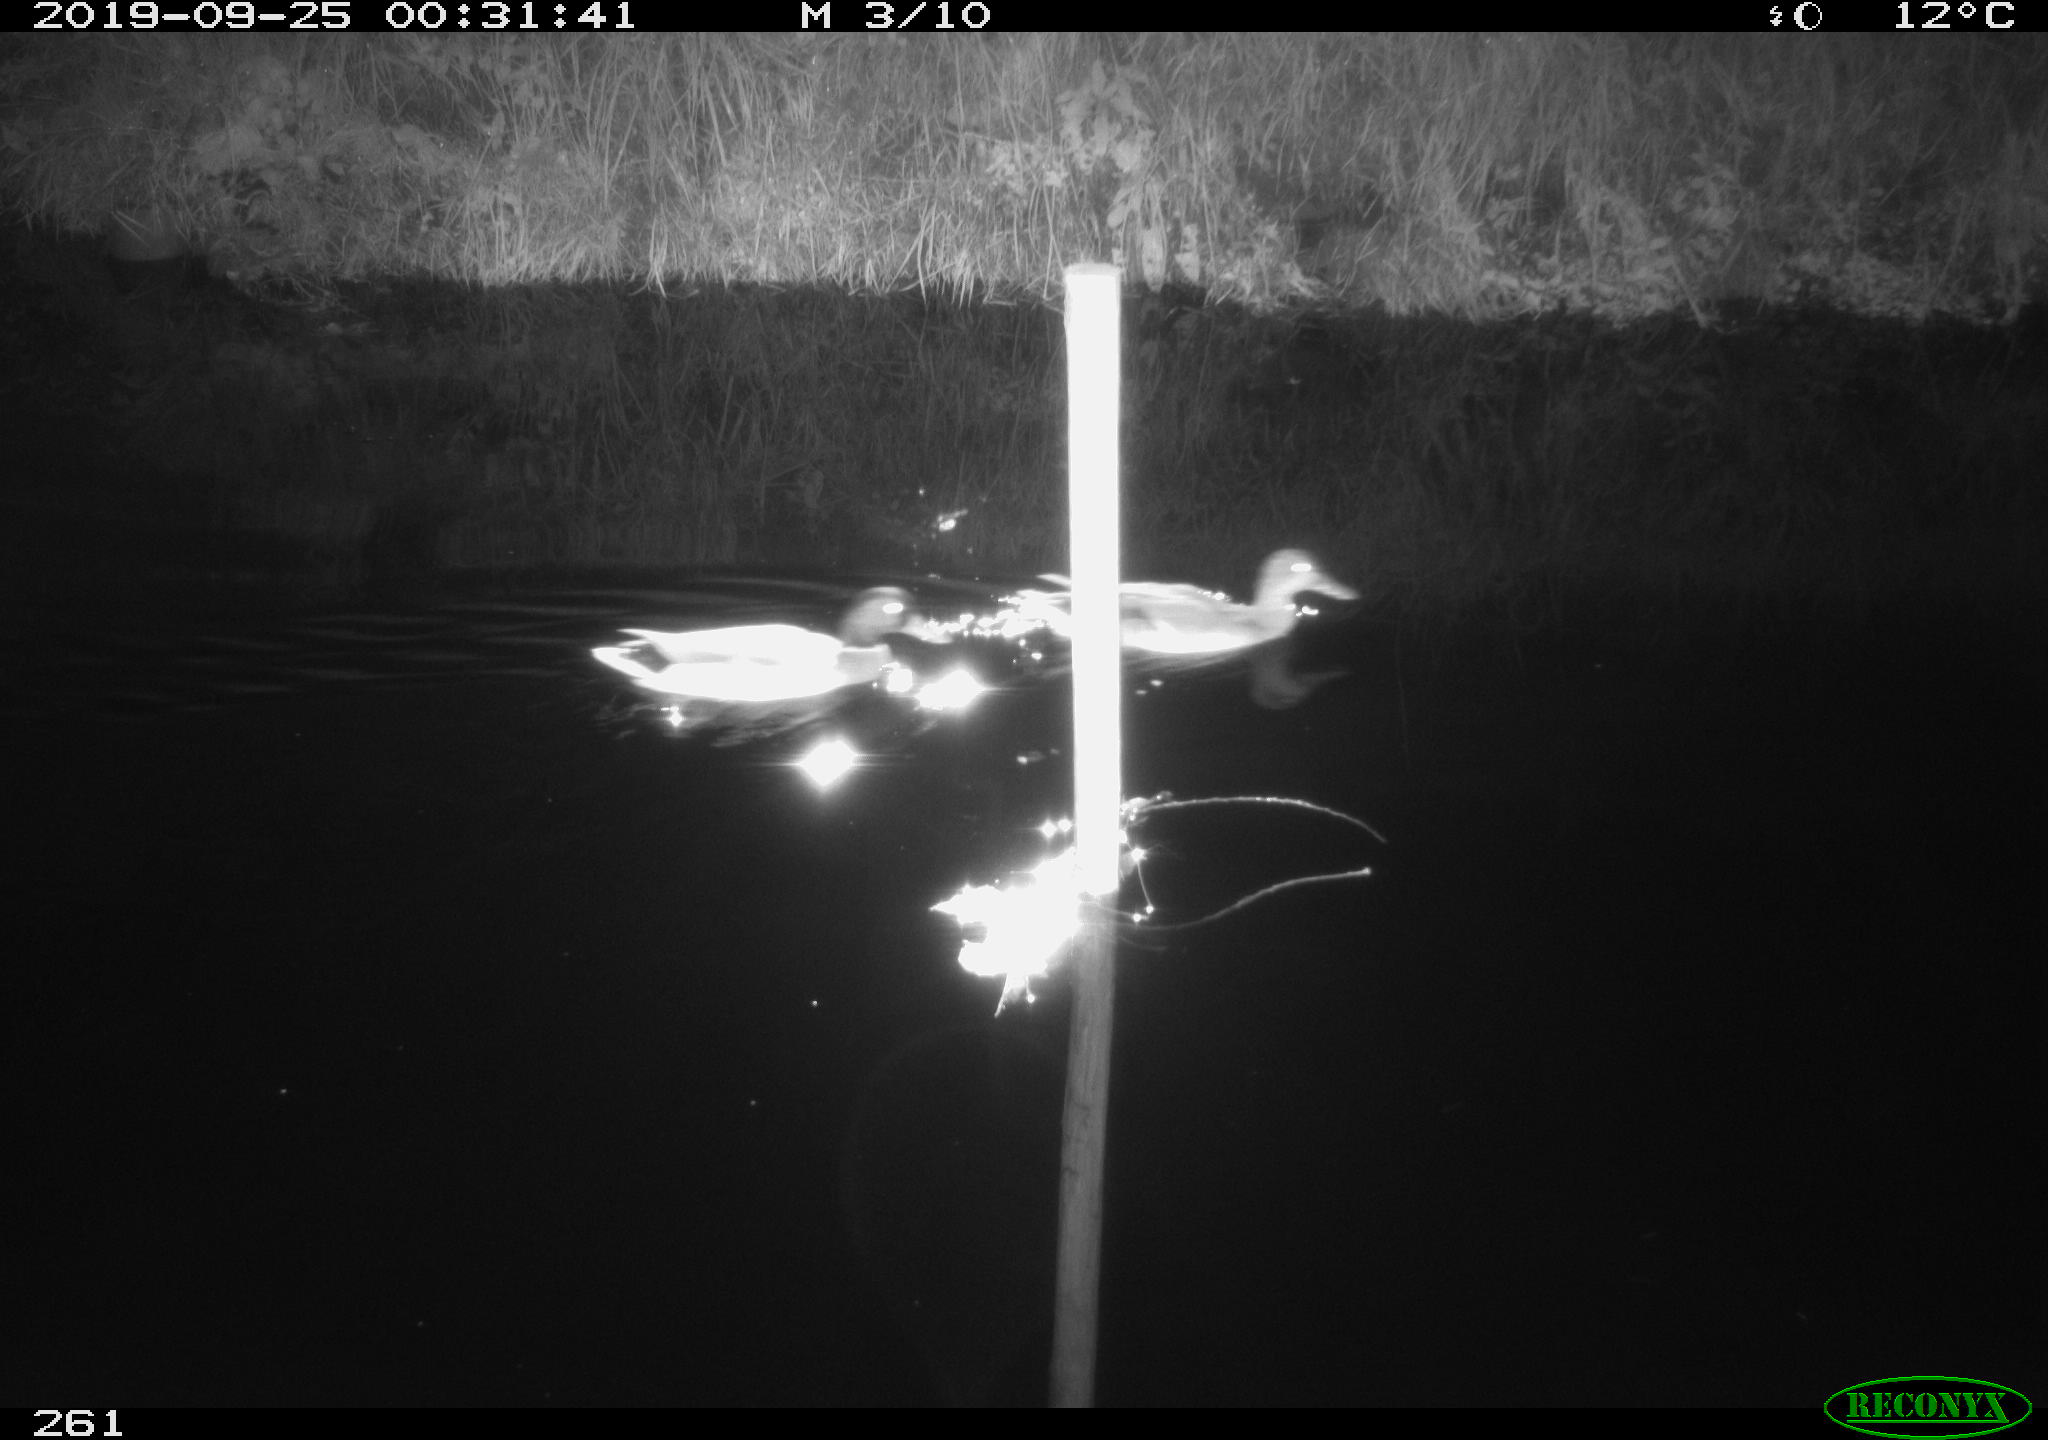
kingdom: Animalia
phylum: Chordata
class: Aves
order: Anseriformes
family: Anatidae
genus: Anas
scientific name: Anas platyrhynchos
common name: Mallard
